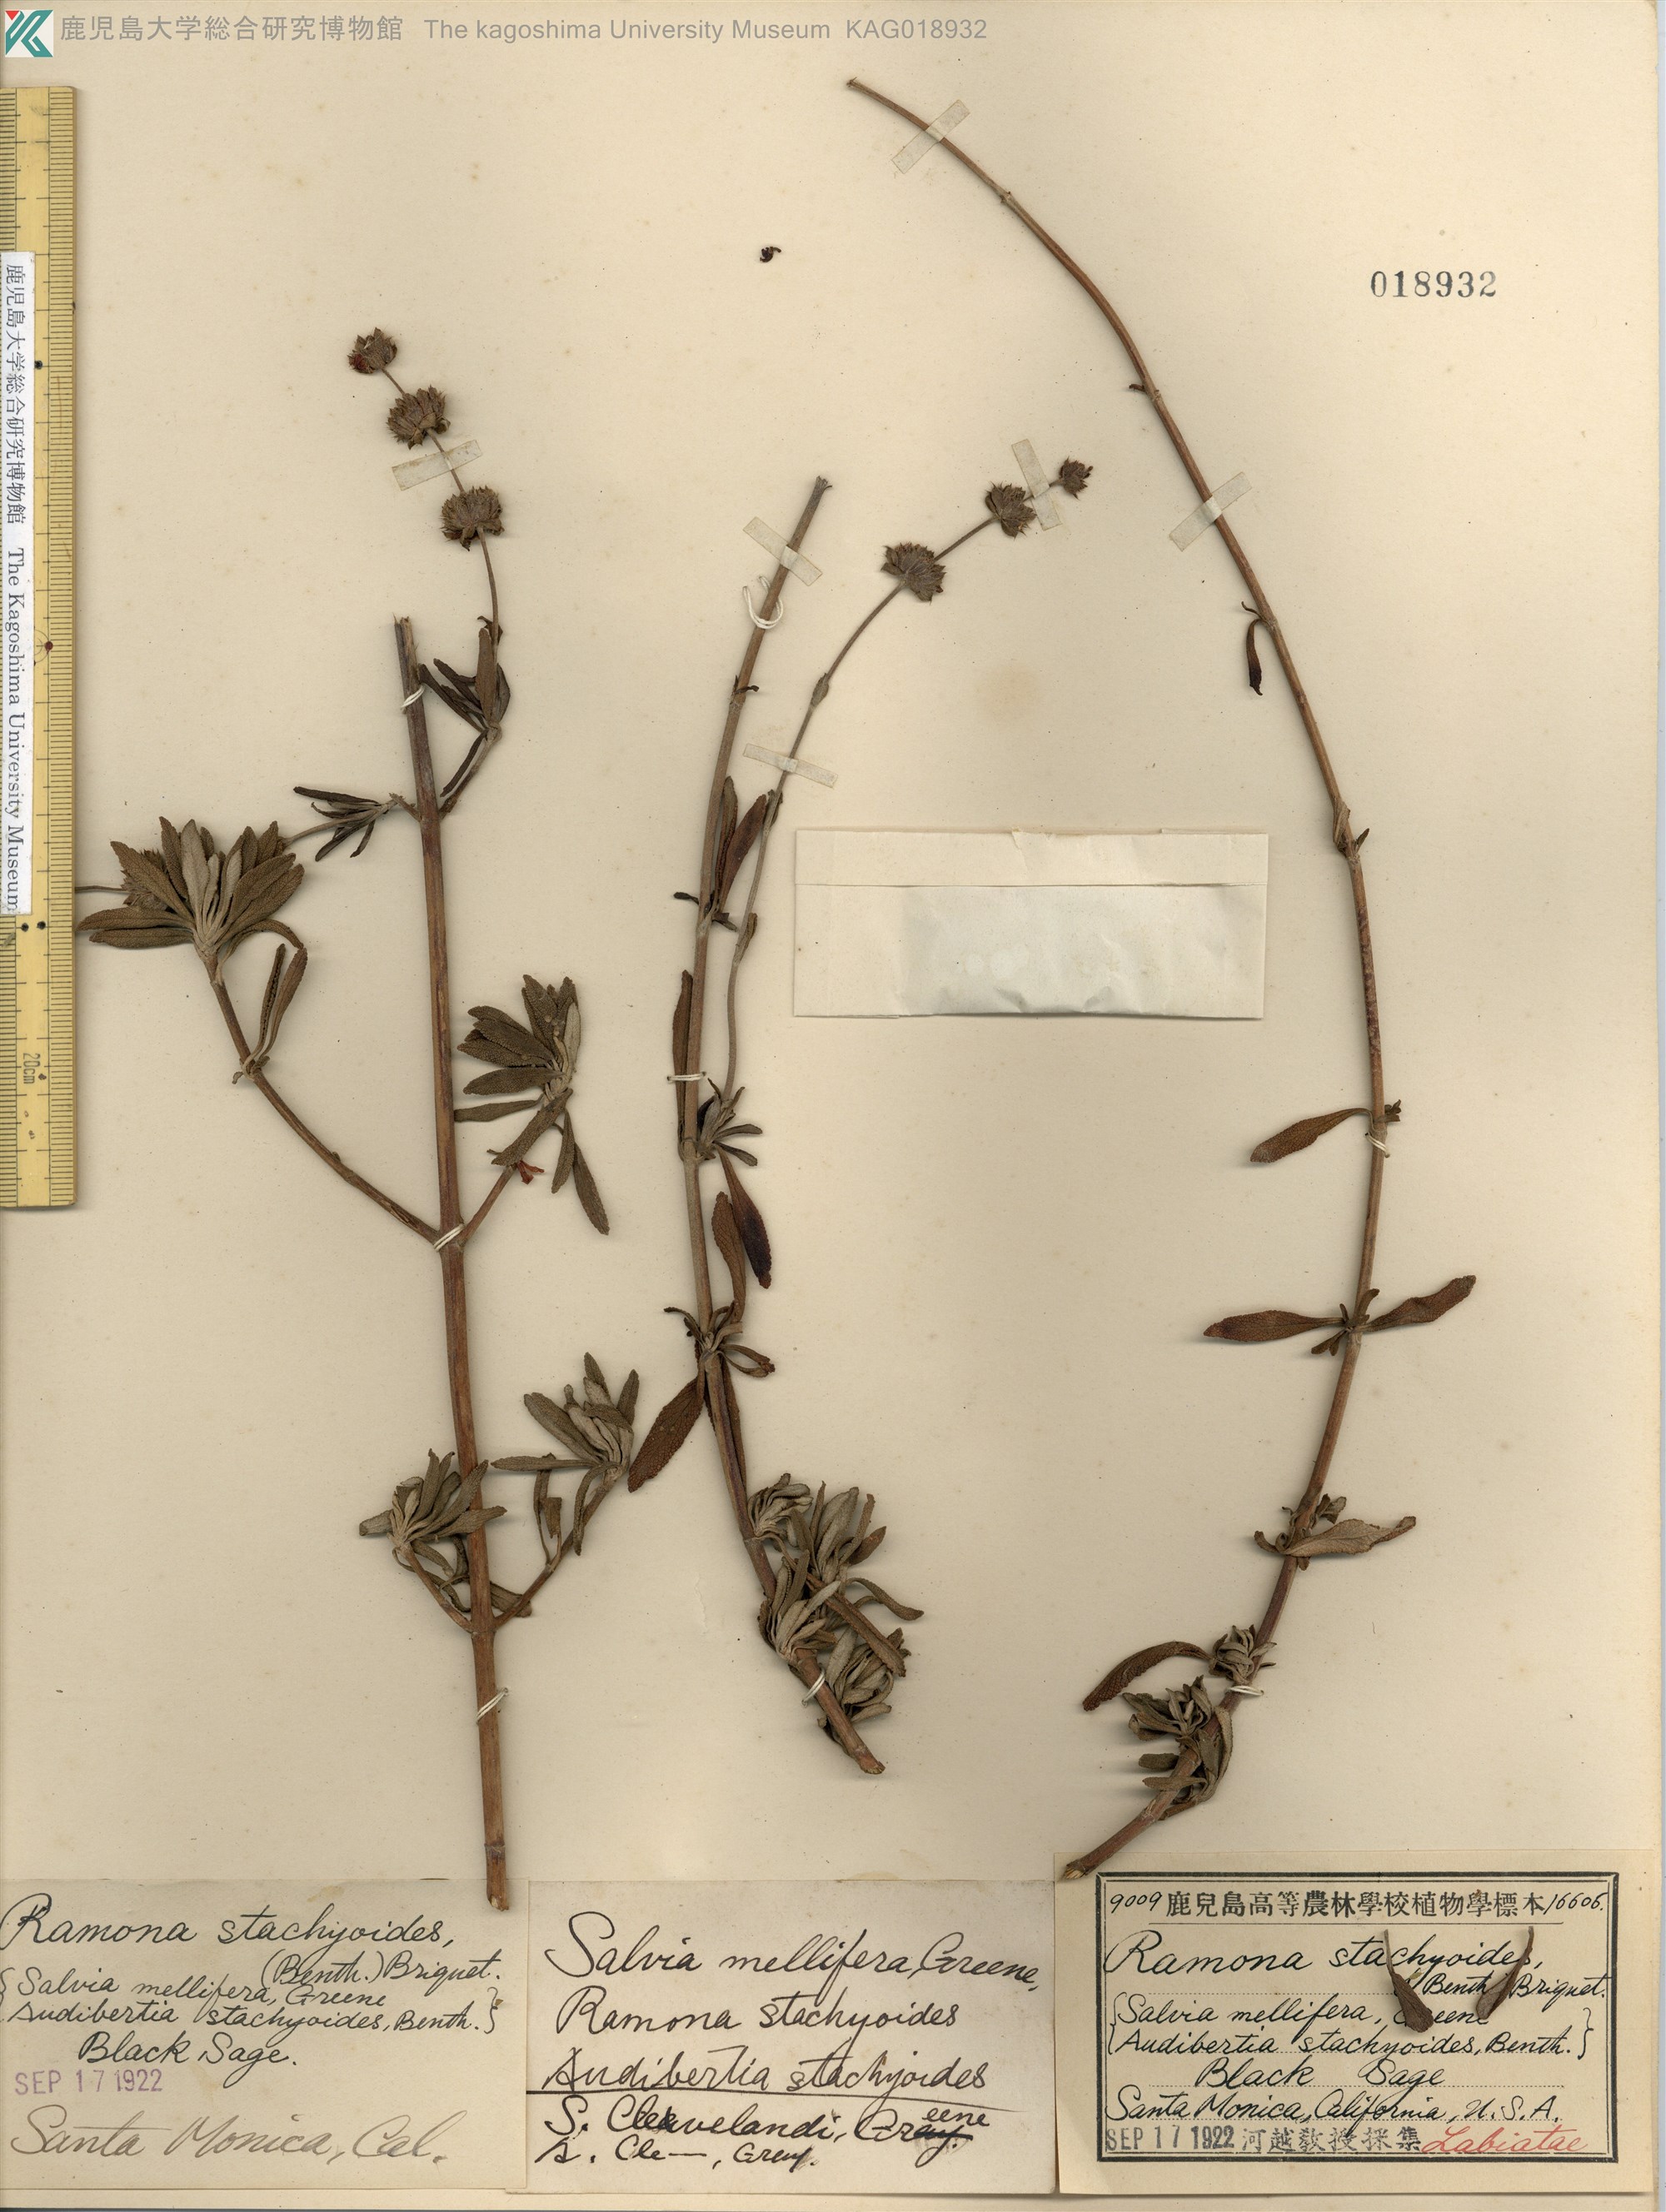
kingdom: Plantae
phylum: Tracheophyta
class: Magnoliopsida
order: Lamiales
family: Lamiaceae
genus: Salvia
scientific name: Salvia mellifera
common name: Black sage
